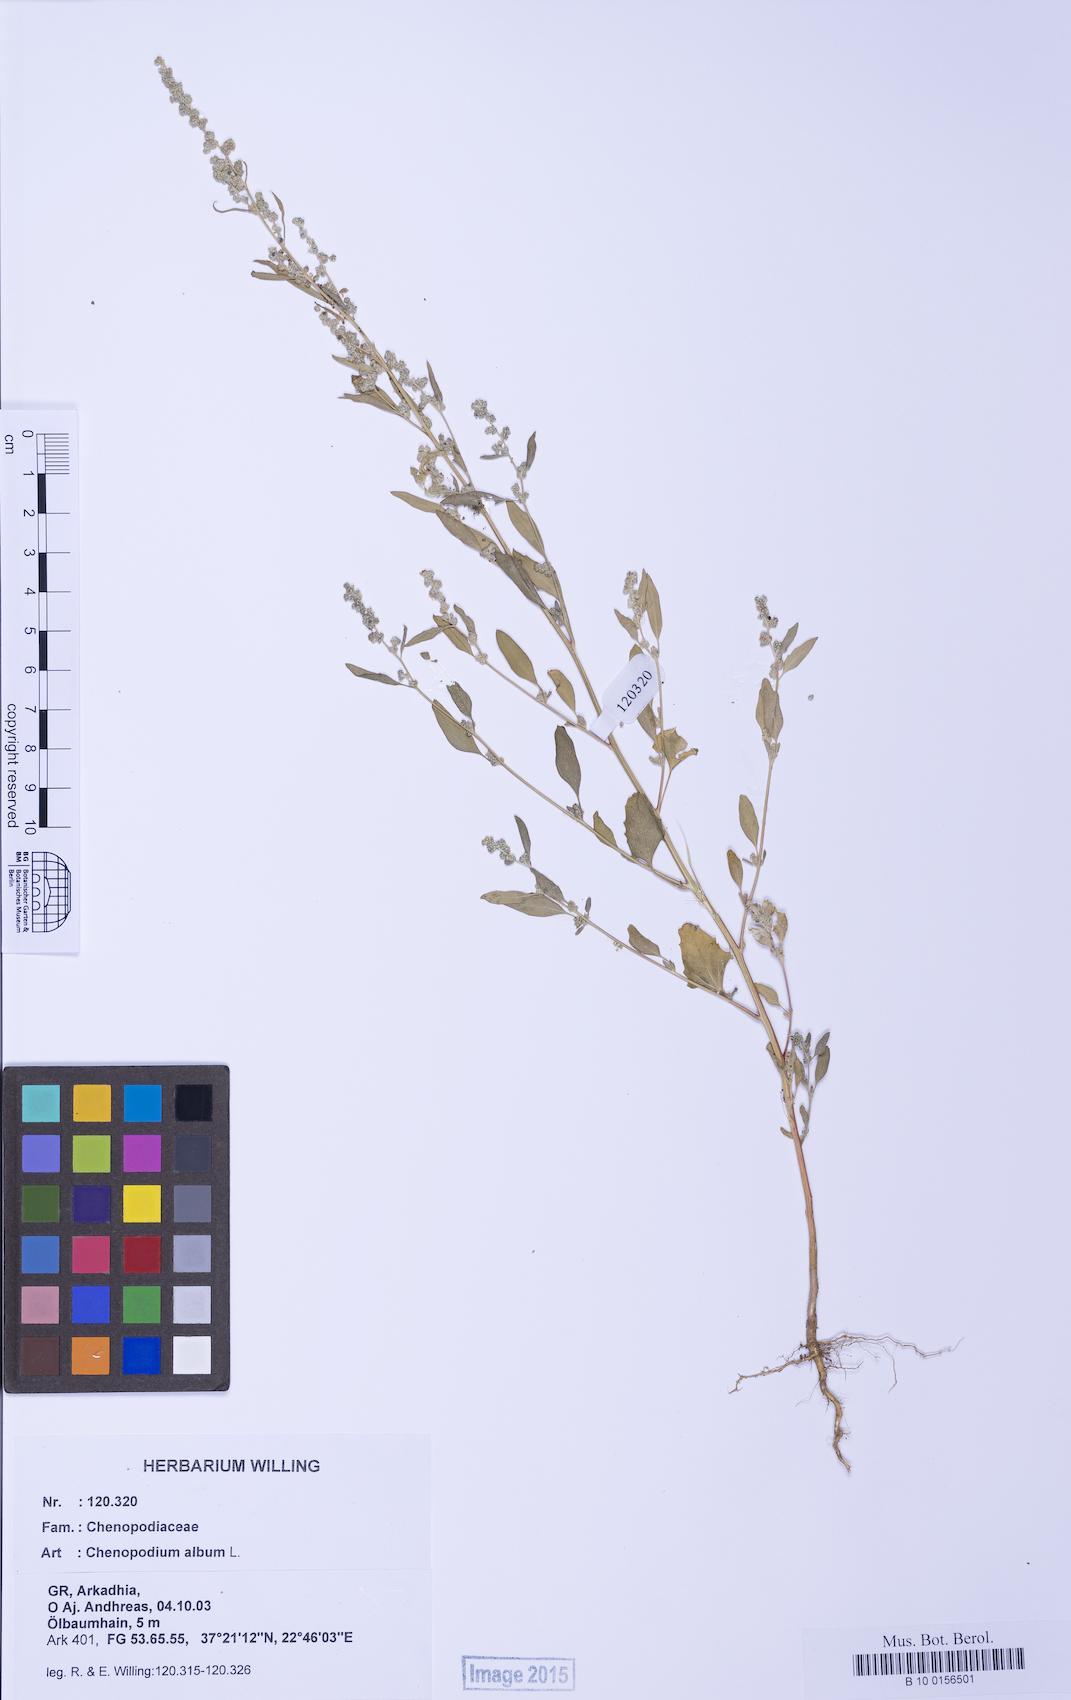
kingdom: Plantae
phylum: Tracheophyta
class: Magnoliopsida
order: Caryophyllales
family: Amaranthaceae
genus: Chenopodium
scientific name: Chenopodium album
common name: Fat-hen
